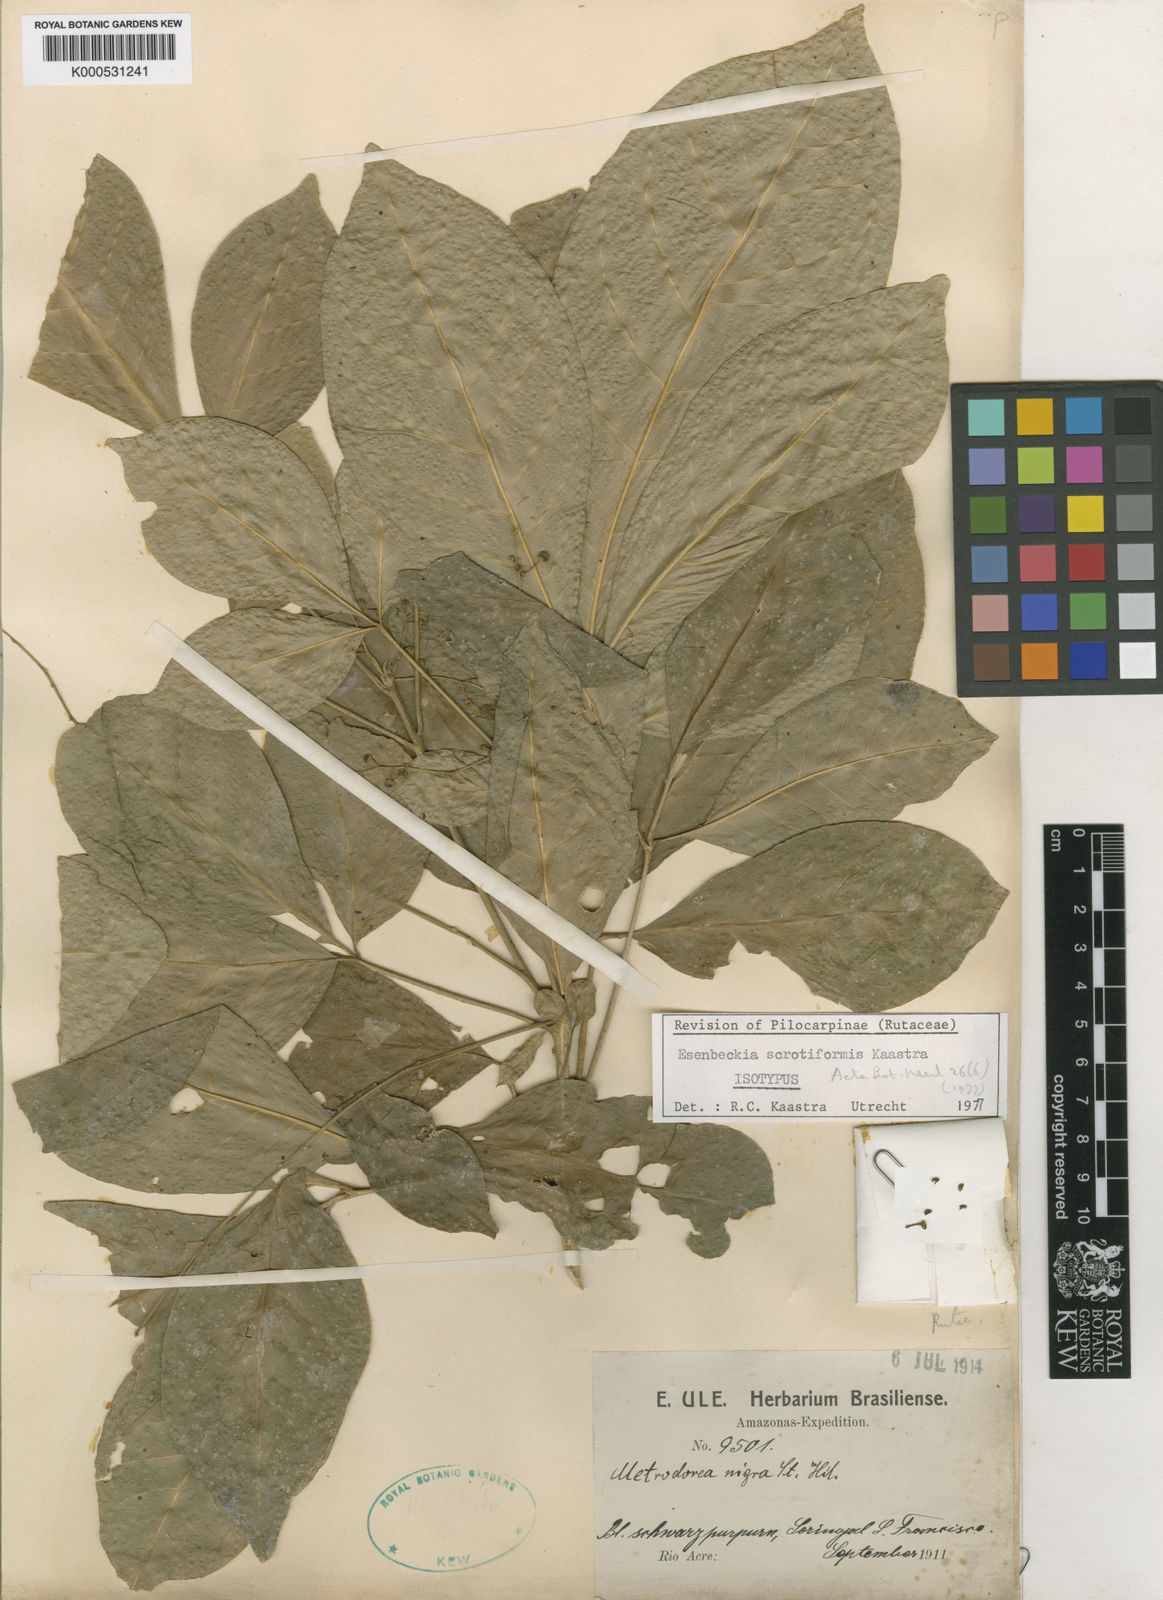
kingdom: Plantae
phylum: Tracheophyta
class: Magnoliopsida
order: Sapindales
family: Rutaceae
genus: Esenbeckia
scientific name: Esenbeckia scrotiformis
